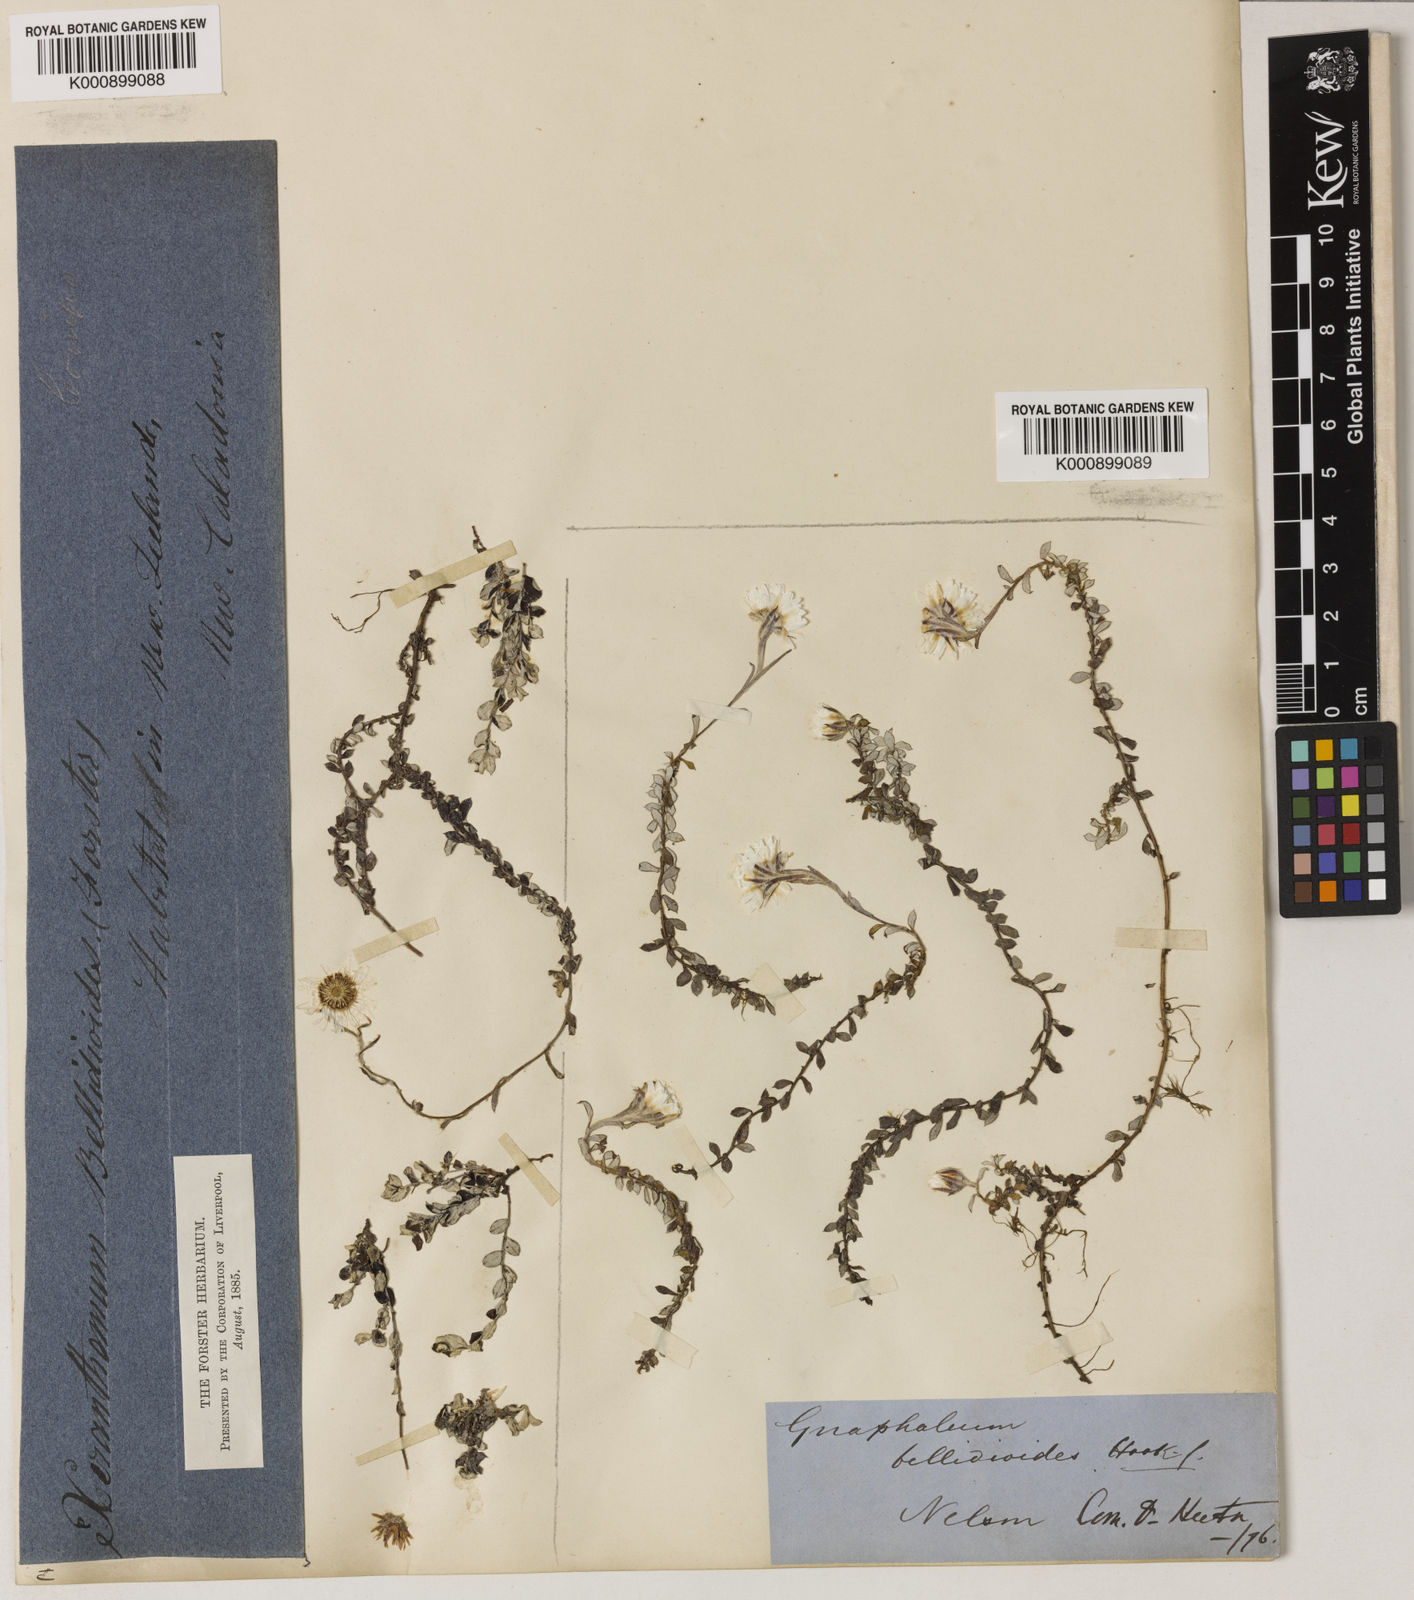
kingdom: Plantae
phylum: Tracheophyta
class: Magnoliopsida
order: Asterales
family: Asteraceae
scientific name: Asteraceae
